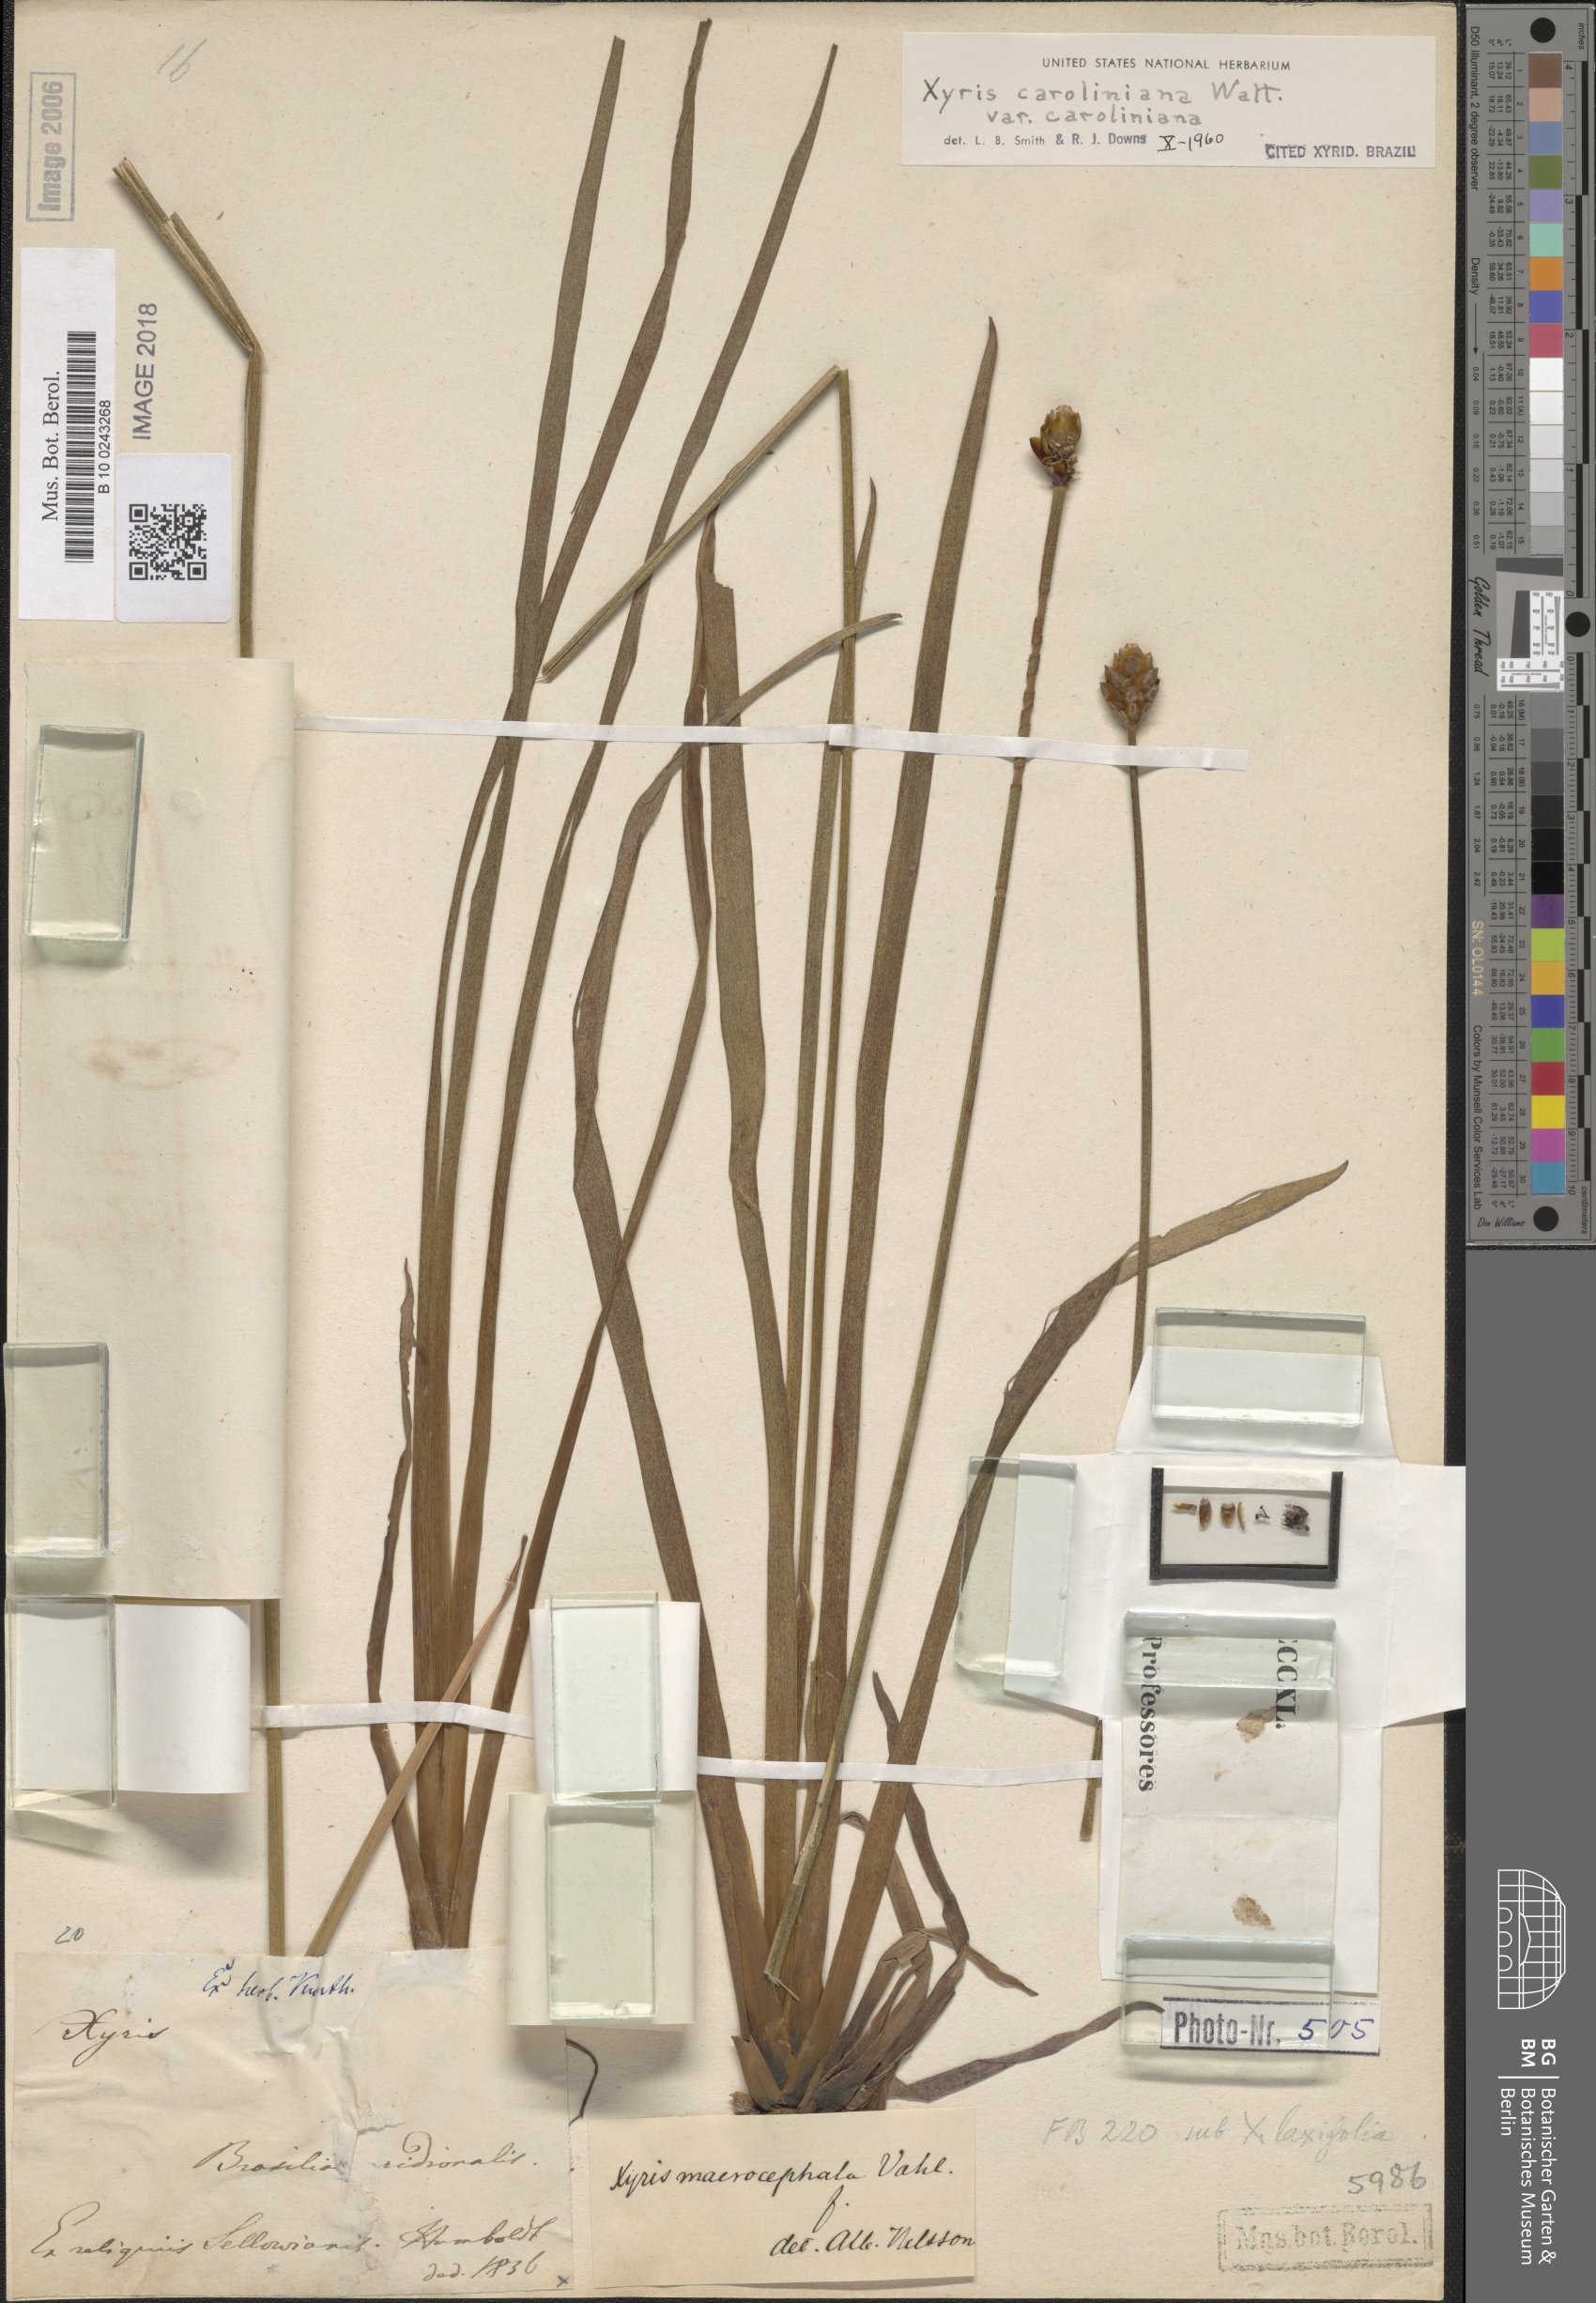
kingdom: Plantae
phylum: Tracheophyta
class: Liliopsida
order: Poales
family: Xyridaceae
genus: Xyris
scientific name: Xyris caroliniana
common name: Carolina yellow-eyed-grass
